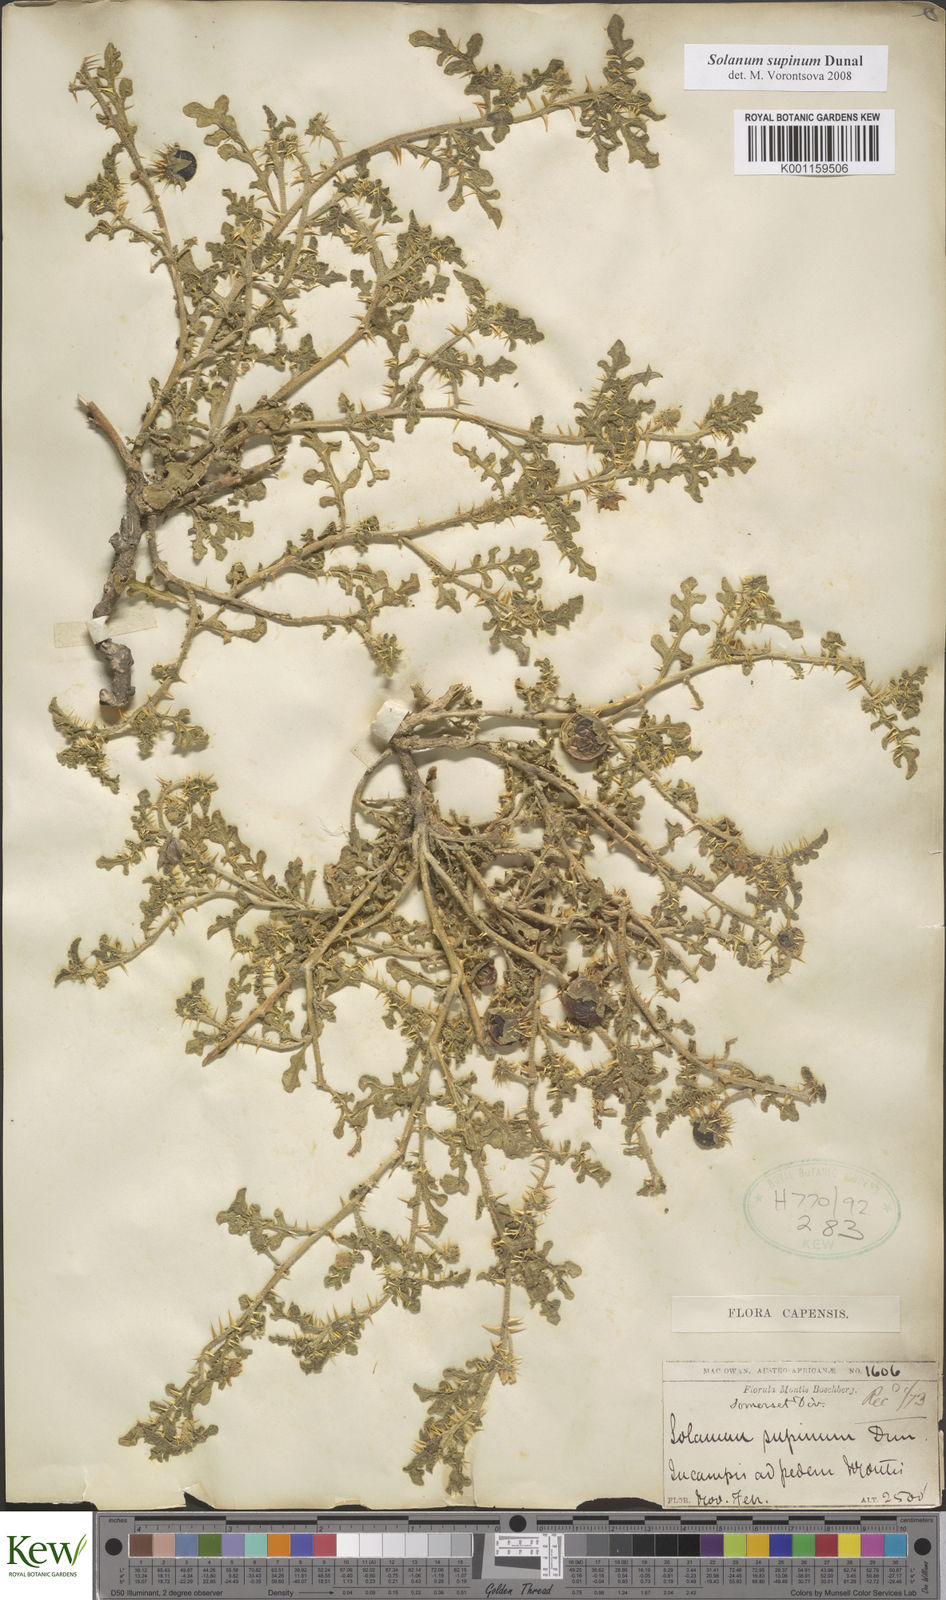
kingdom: Plantae
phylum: Tracheophyta
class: Magnoliopsida
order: Solanales
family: Solanaceae
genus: Solanum
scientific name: Solanum supinum
